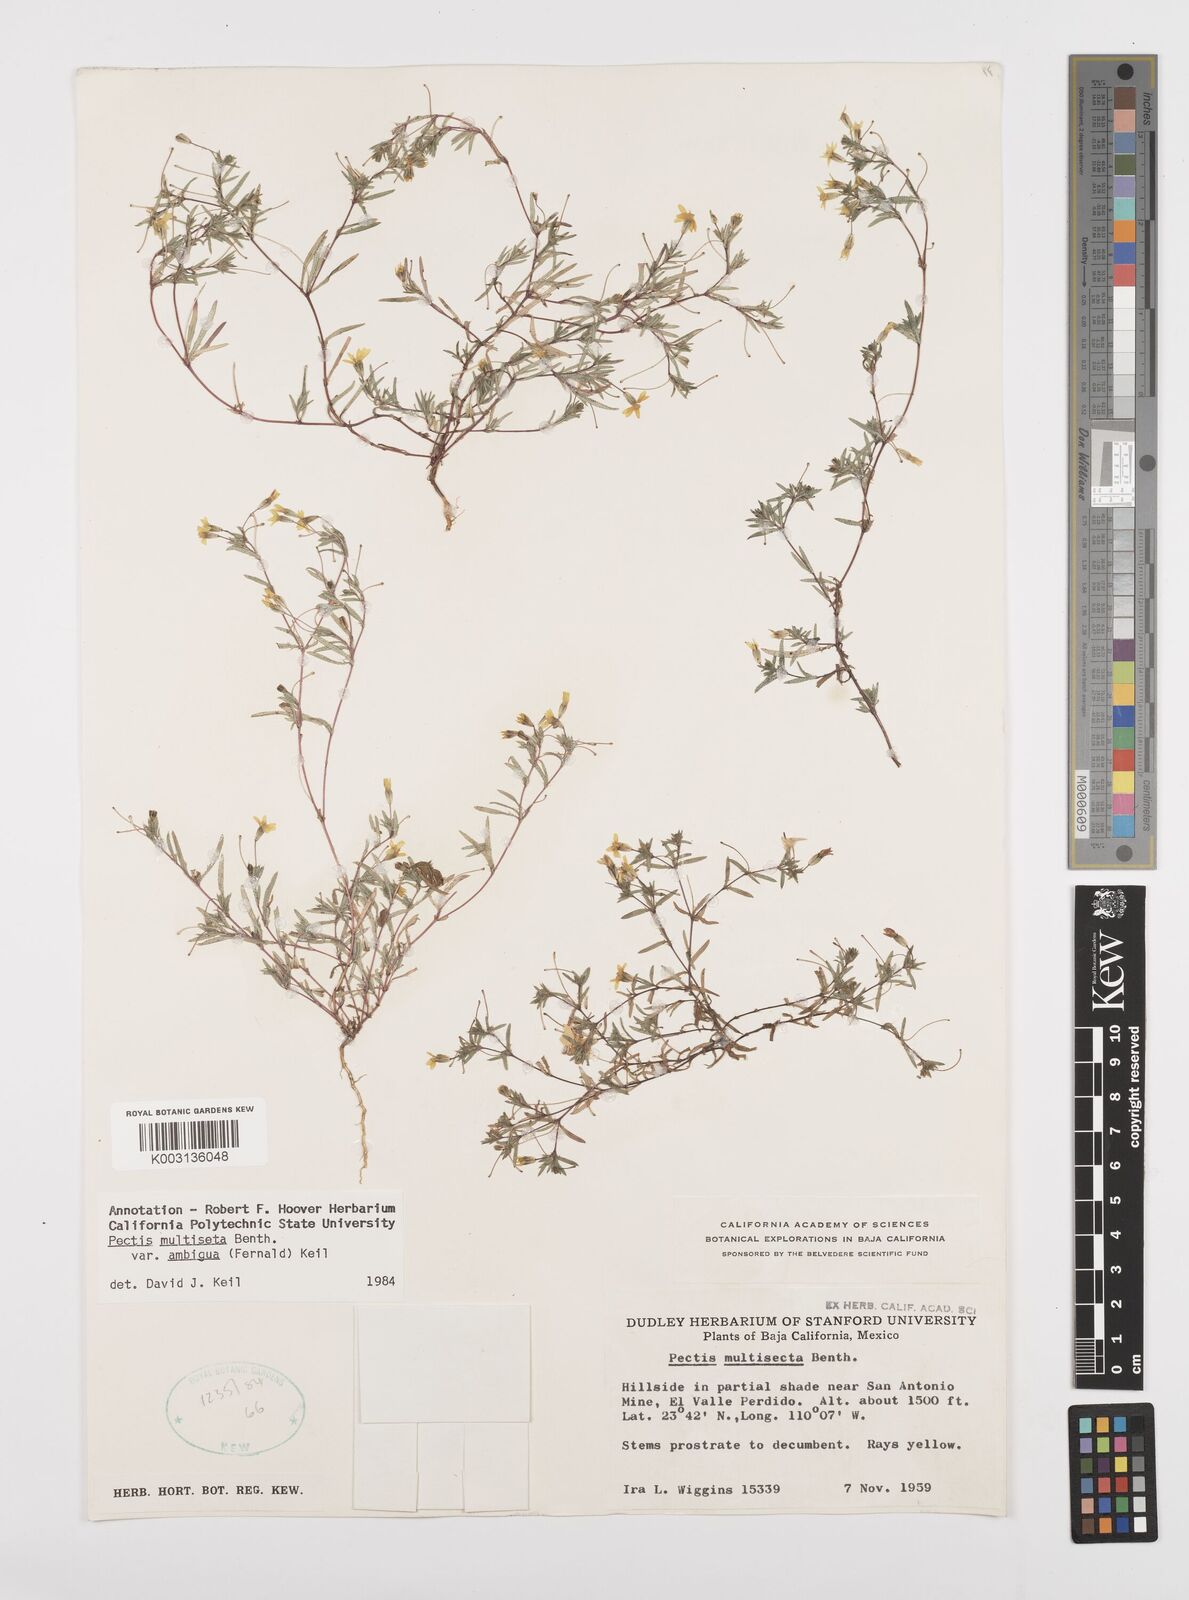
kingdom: Plantae
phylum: Tracheophyta
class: Magnoliopsida
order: Asterales
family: Asteraceae
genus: Pectis
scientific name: Pectis multiseta
